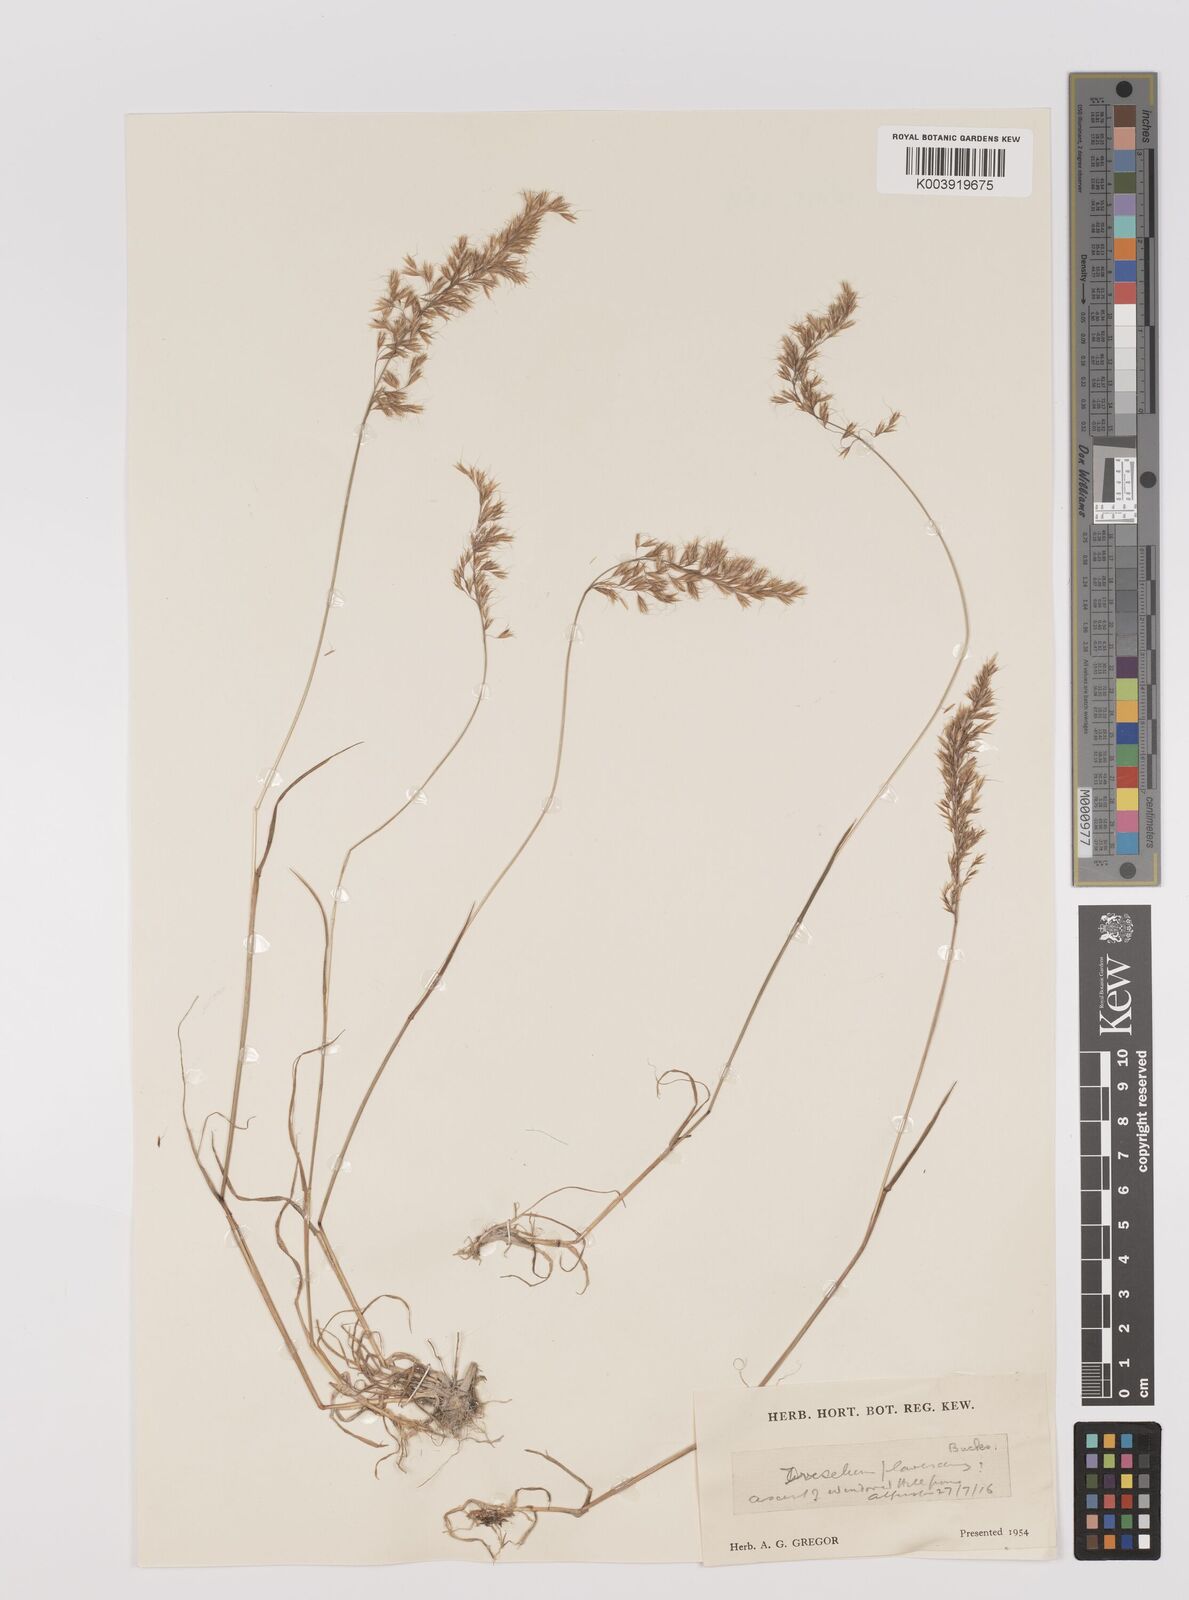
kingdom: Plantae
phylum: Tracheophyta
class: Liliopsida
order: Poales
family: Poaceae
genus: Trisetum
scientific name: Trisetum flavescens
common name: Yellow oat-grass
